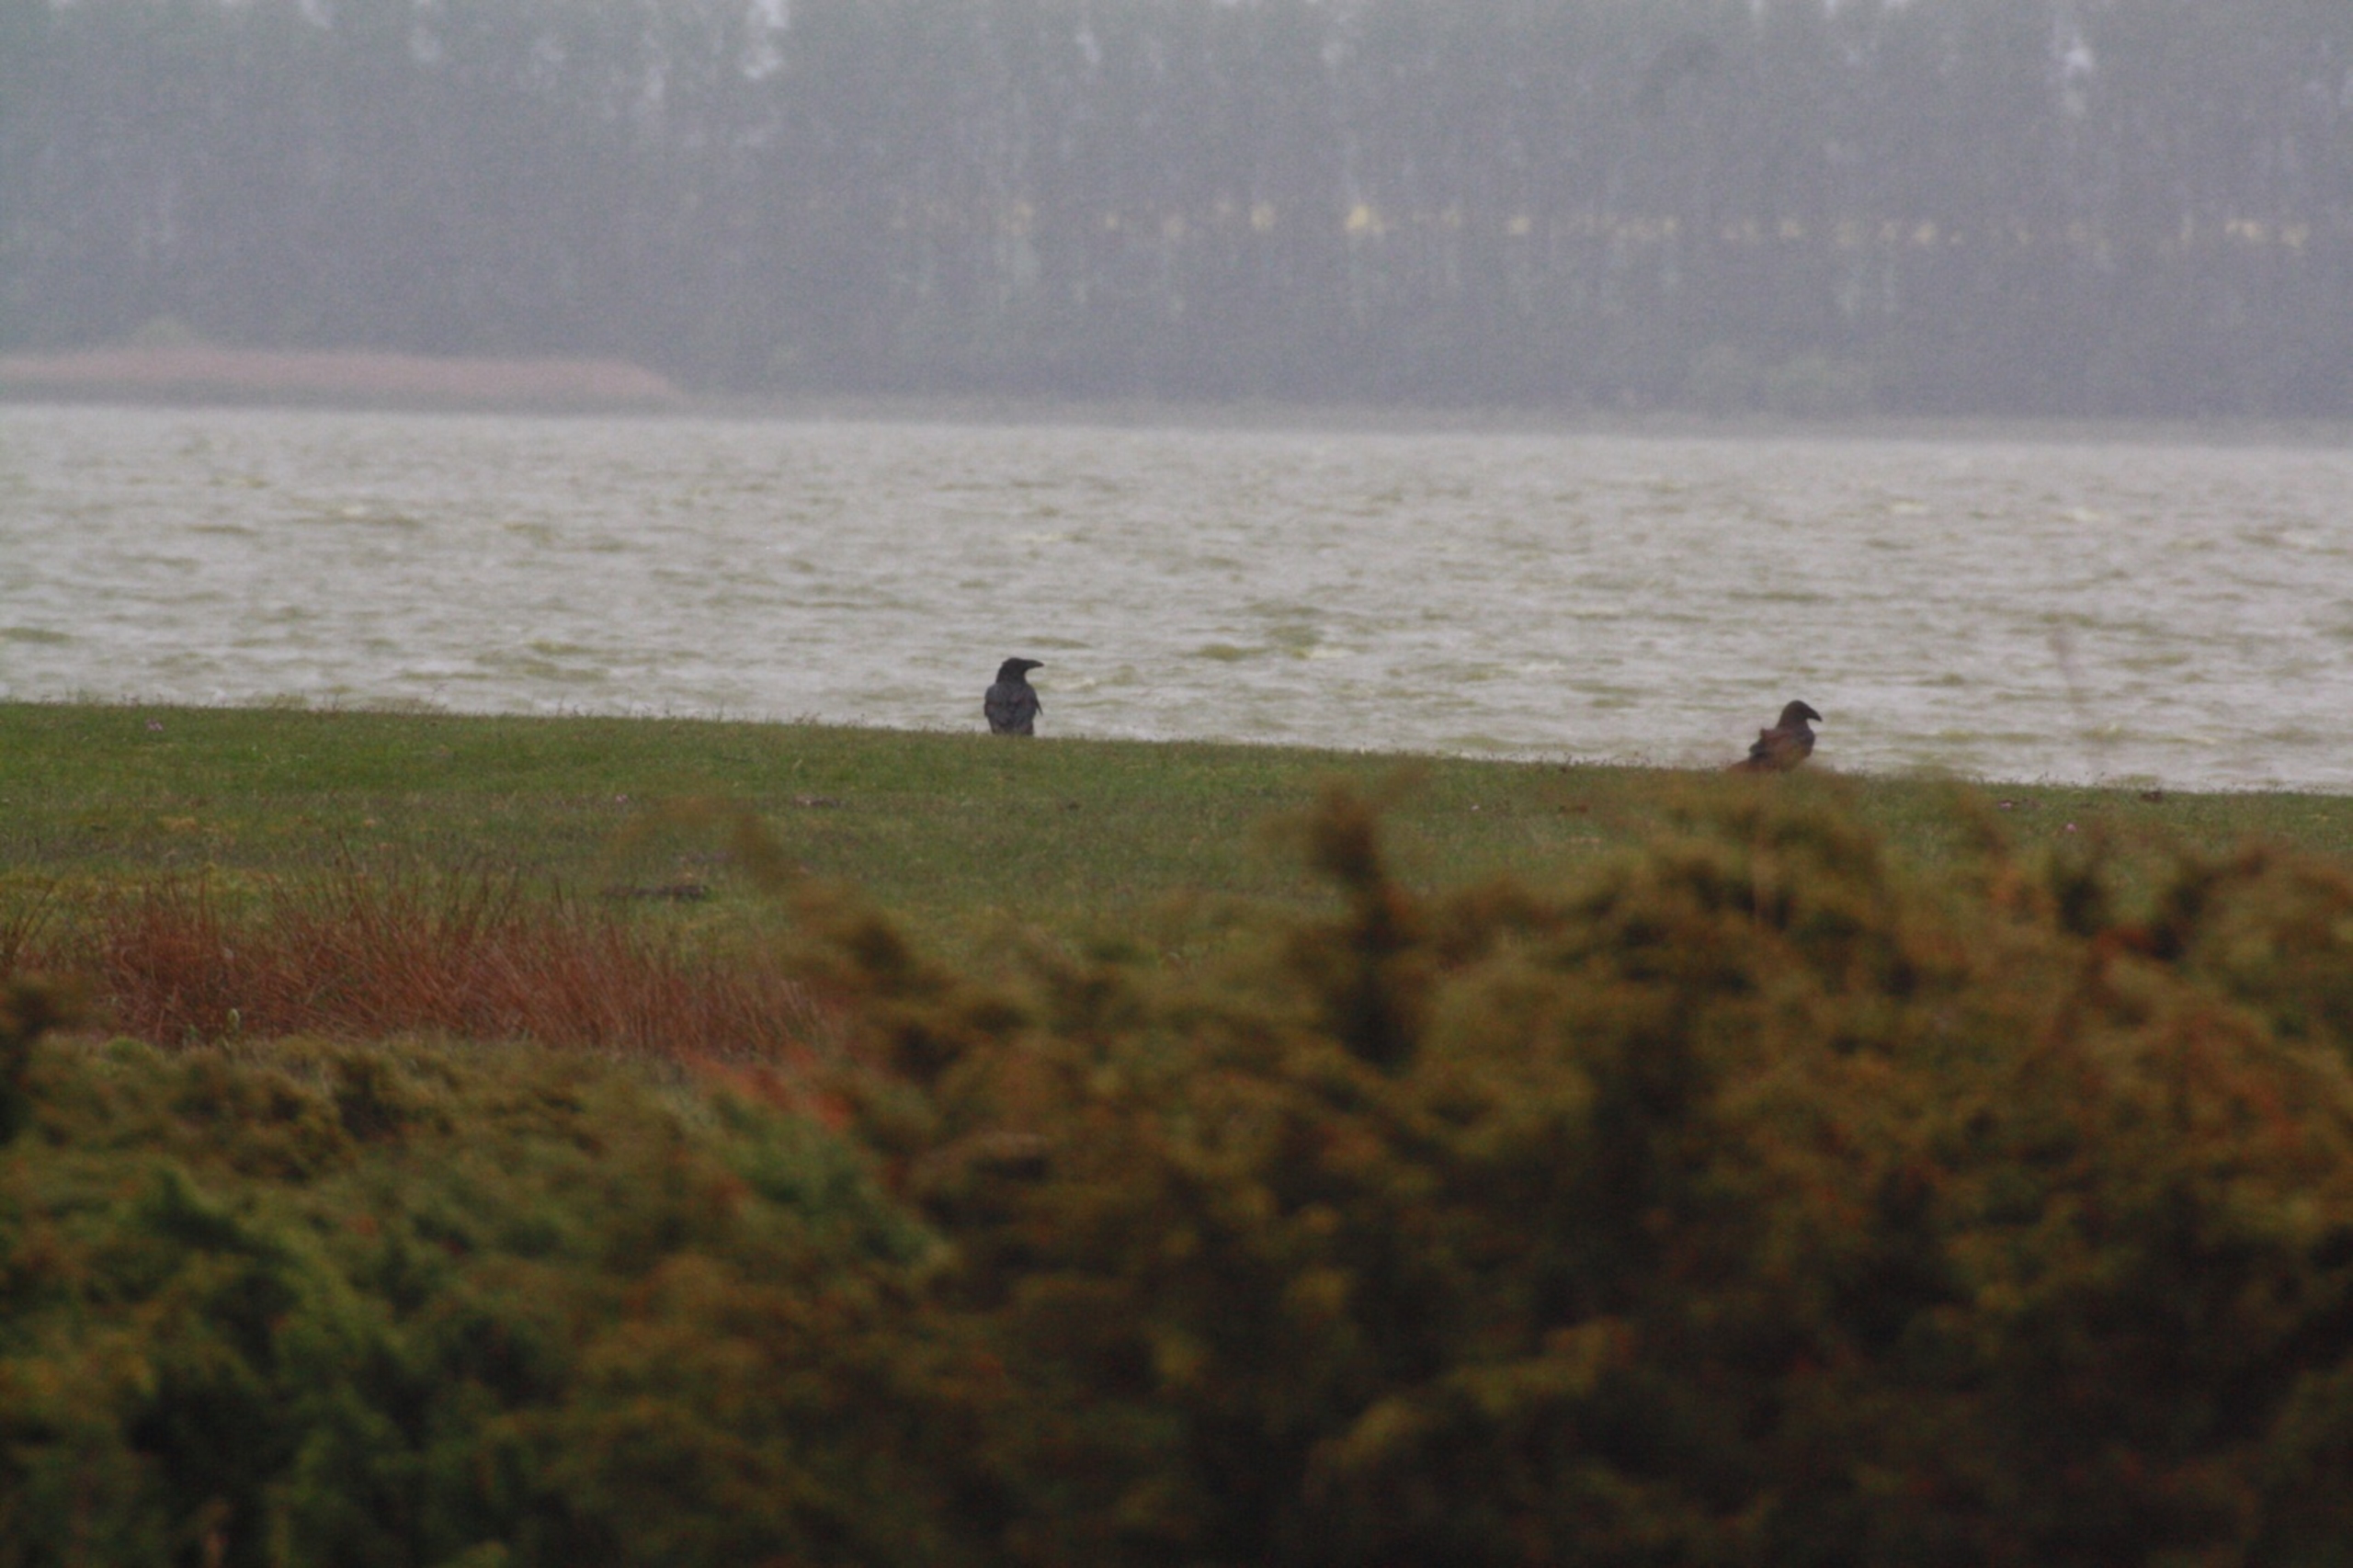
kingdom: Animalia
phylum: Chordata
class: Aves
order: Passeriformes
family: Corvidae
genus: Corvus
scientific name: Corvus corax
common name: Ravn
